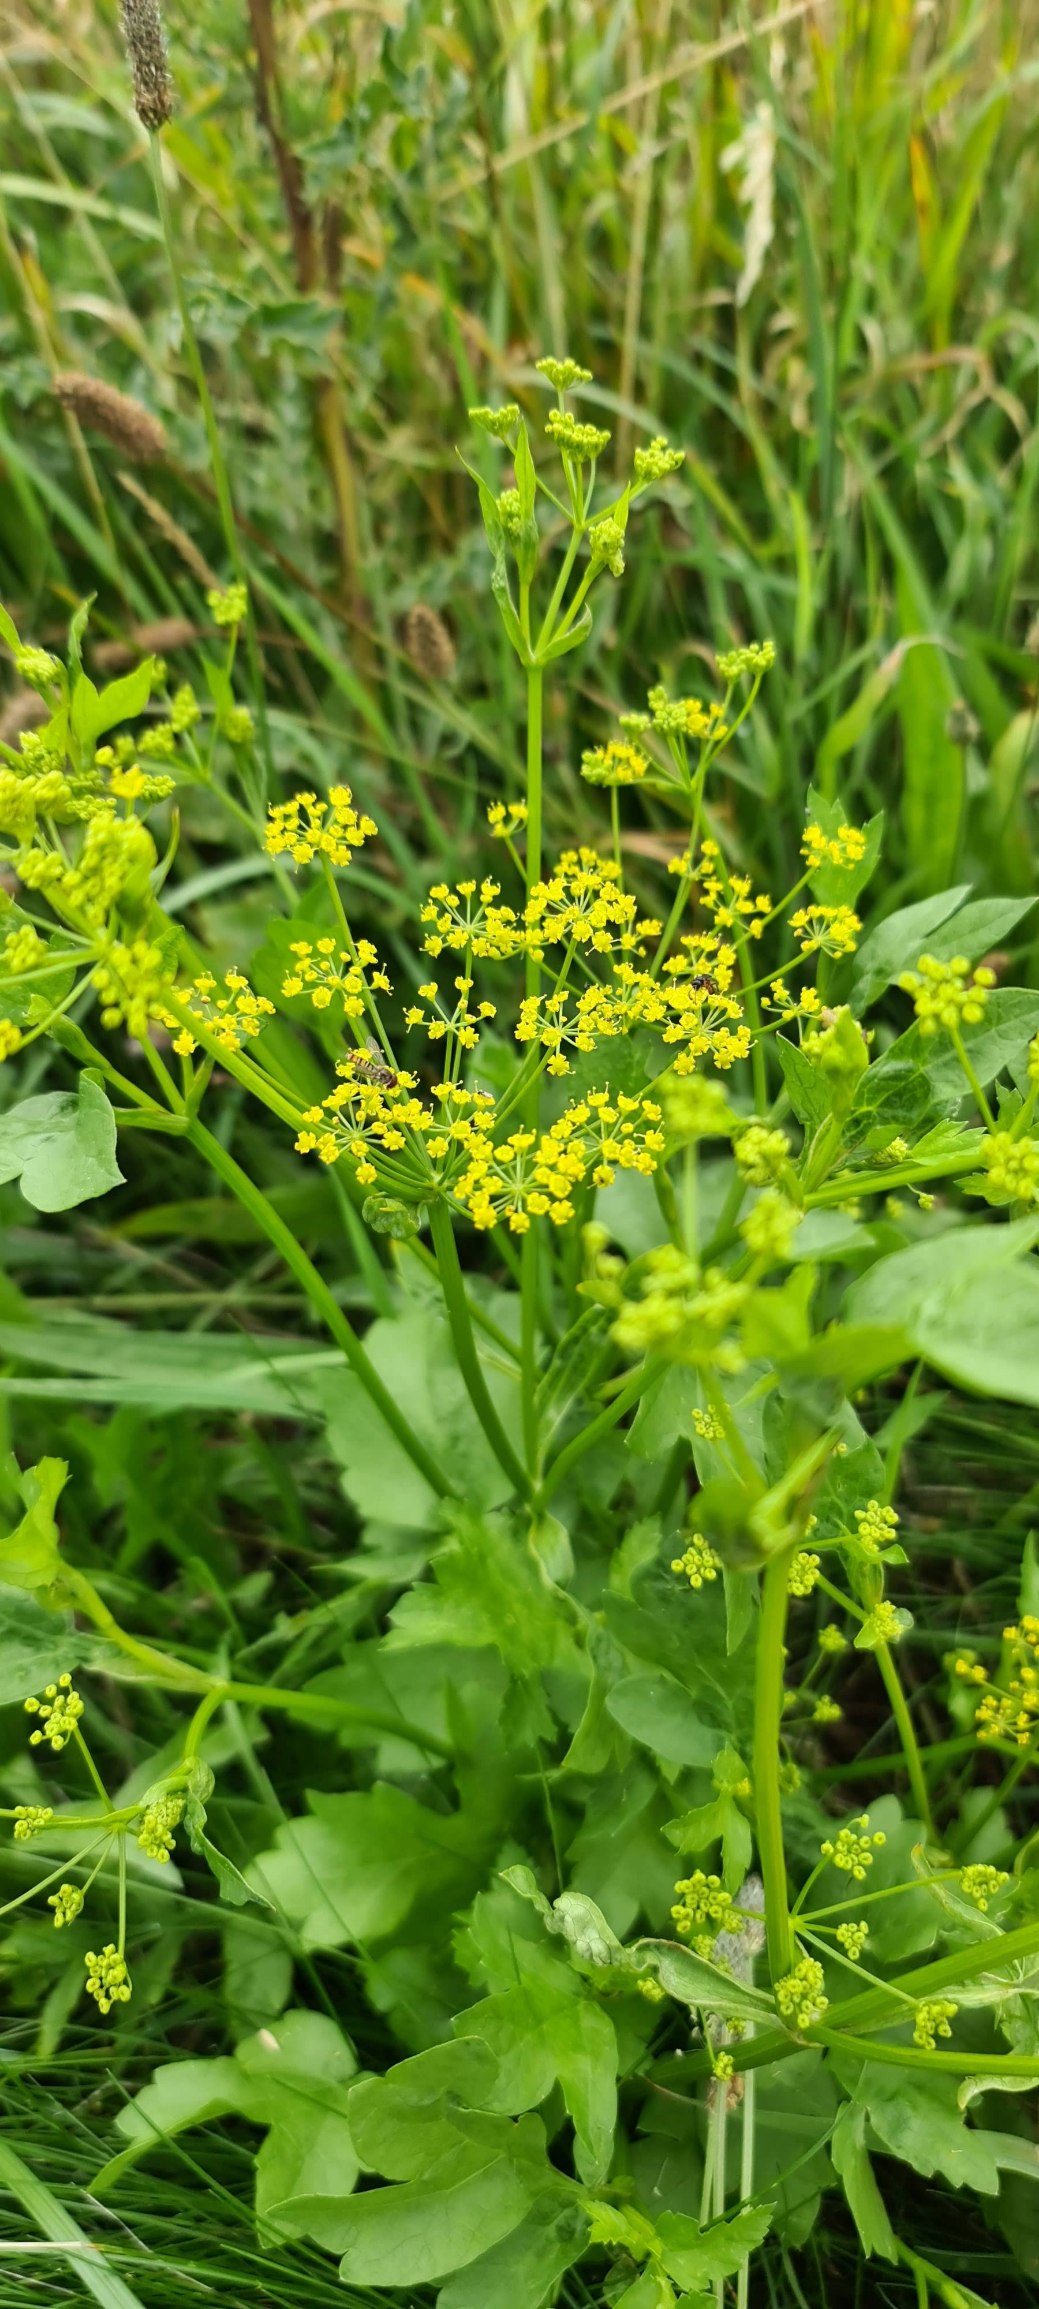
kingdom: Plantae
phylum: Tracheophyta
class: Magnoliopsida
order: Apiales
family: Apiaceae
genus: Pastinaca
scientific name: Pastinaca sativa
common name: Pastinak
